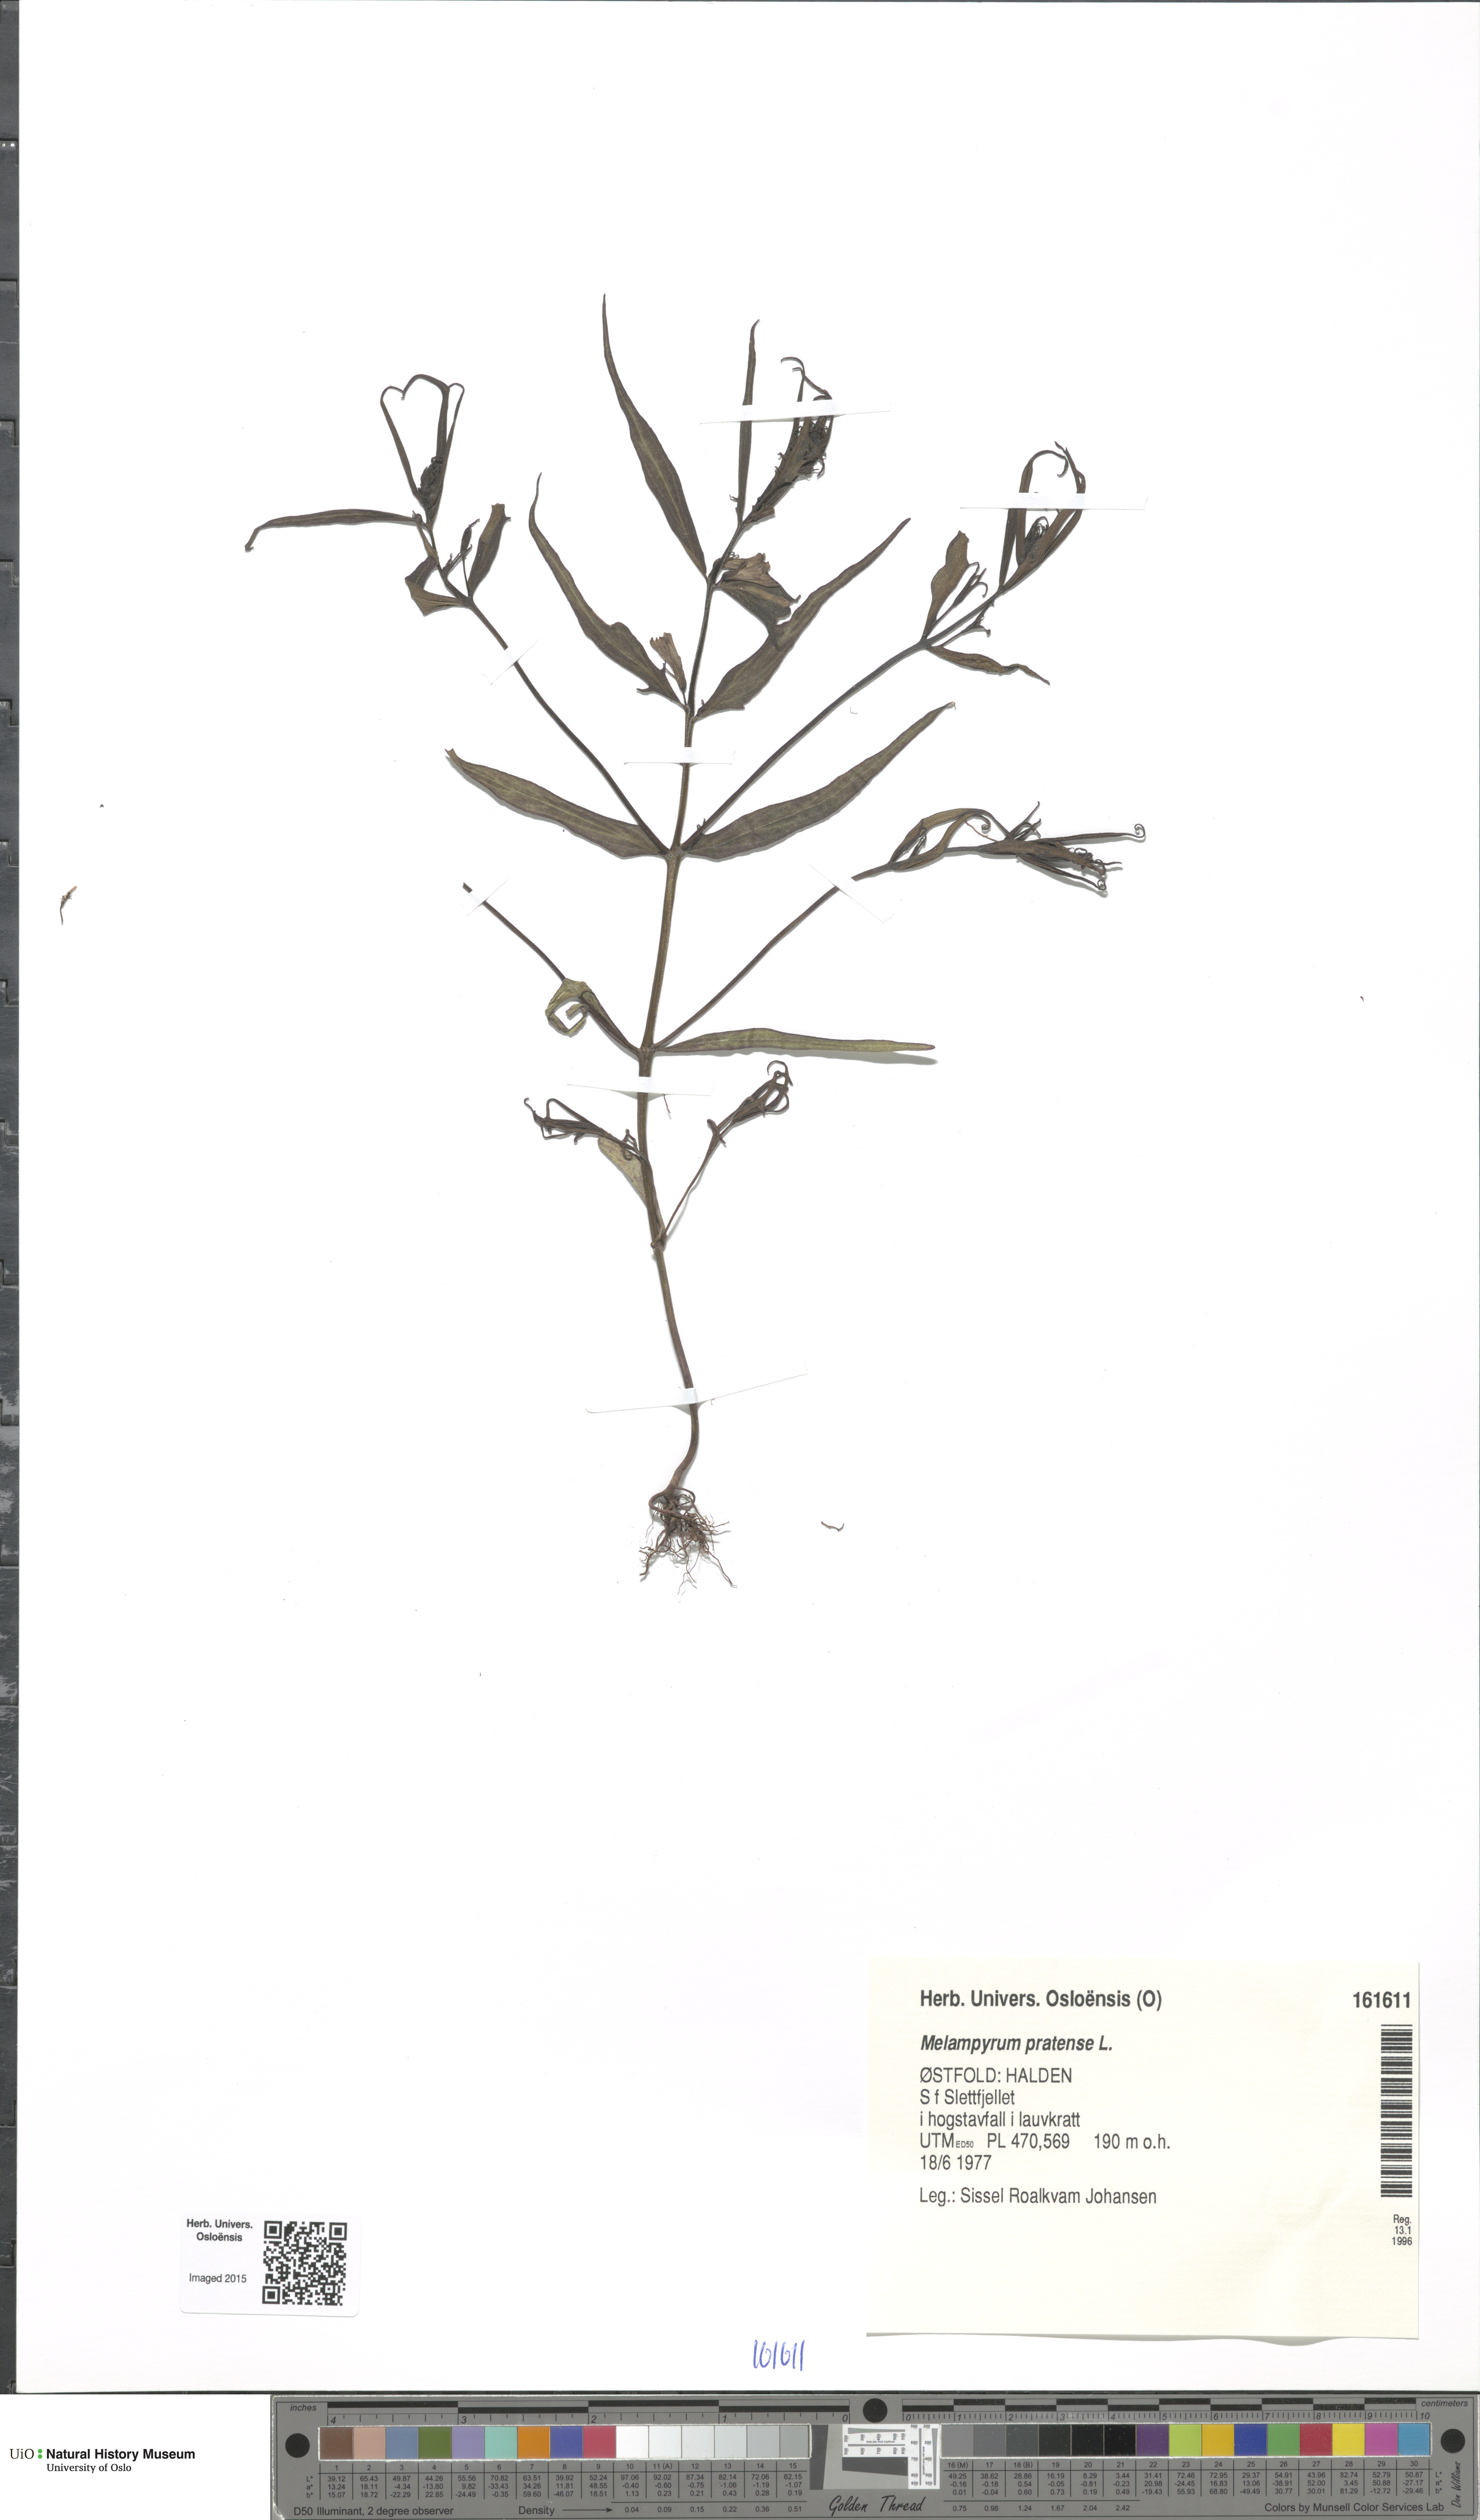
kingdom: Plantae
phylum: Tracheophyta
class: Magnoliopsida
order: Lamiales
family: Orobanchaceae
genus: Melampyrum
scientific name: Melampyrum pratense
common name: Common cow-wheat
